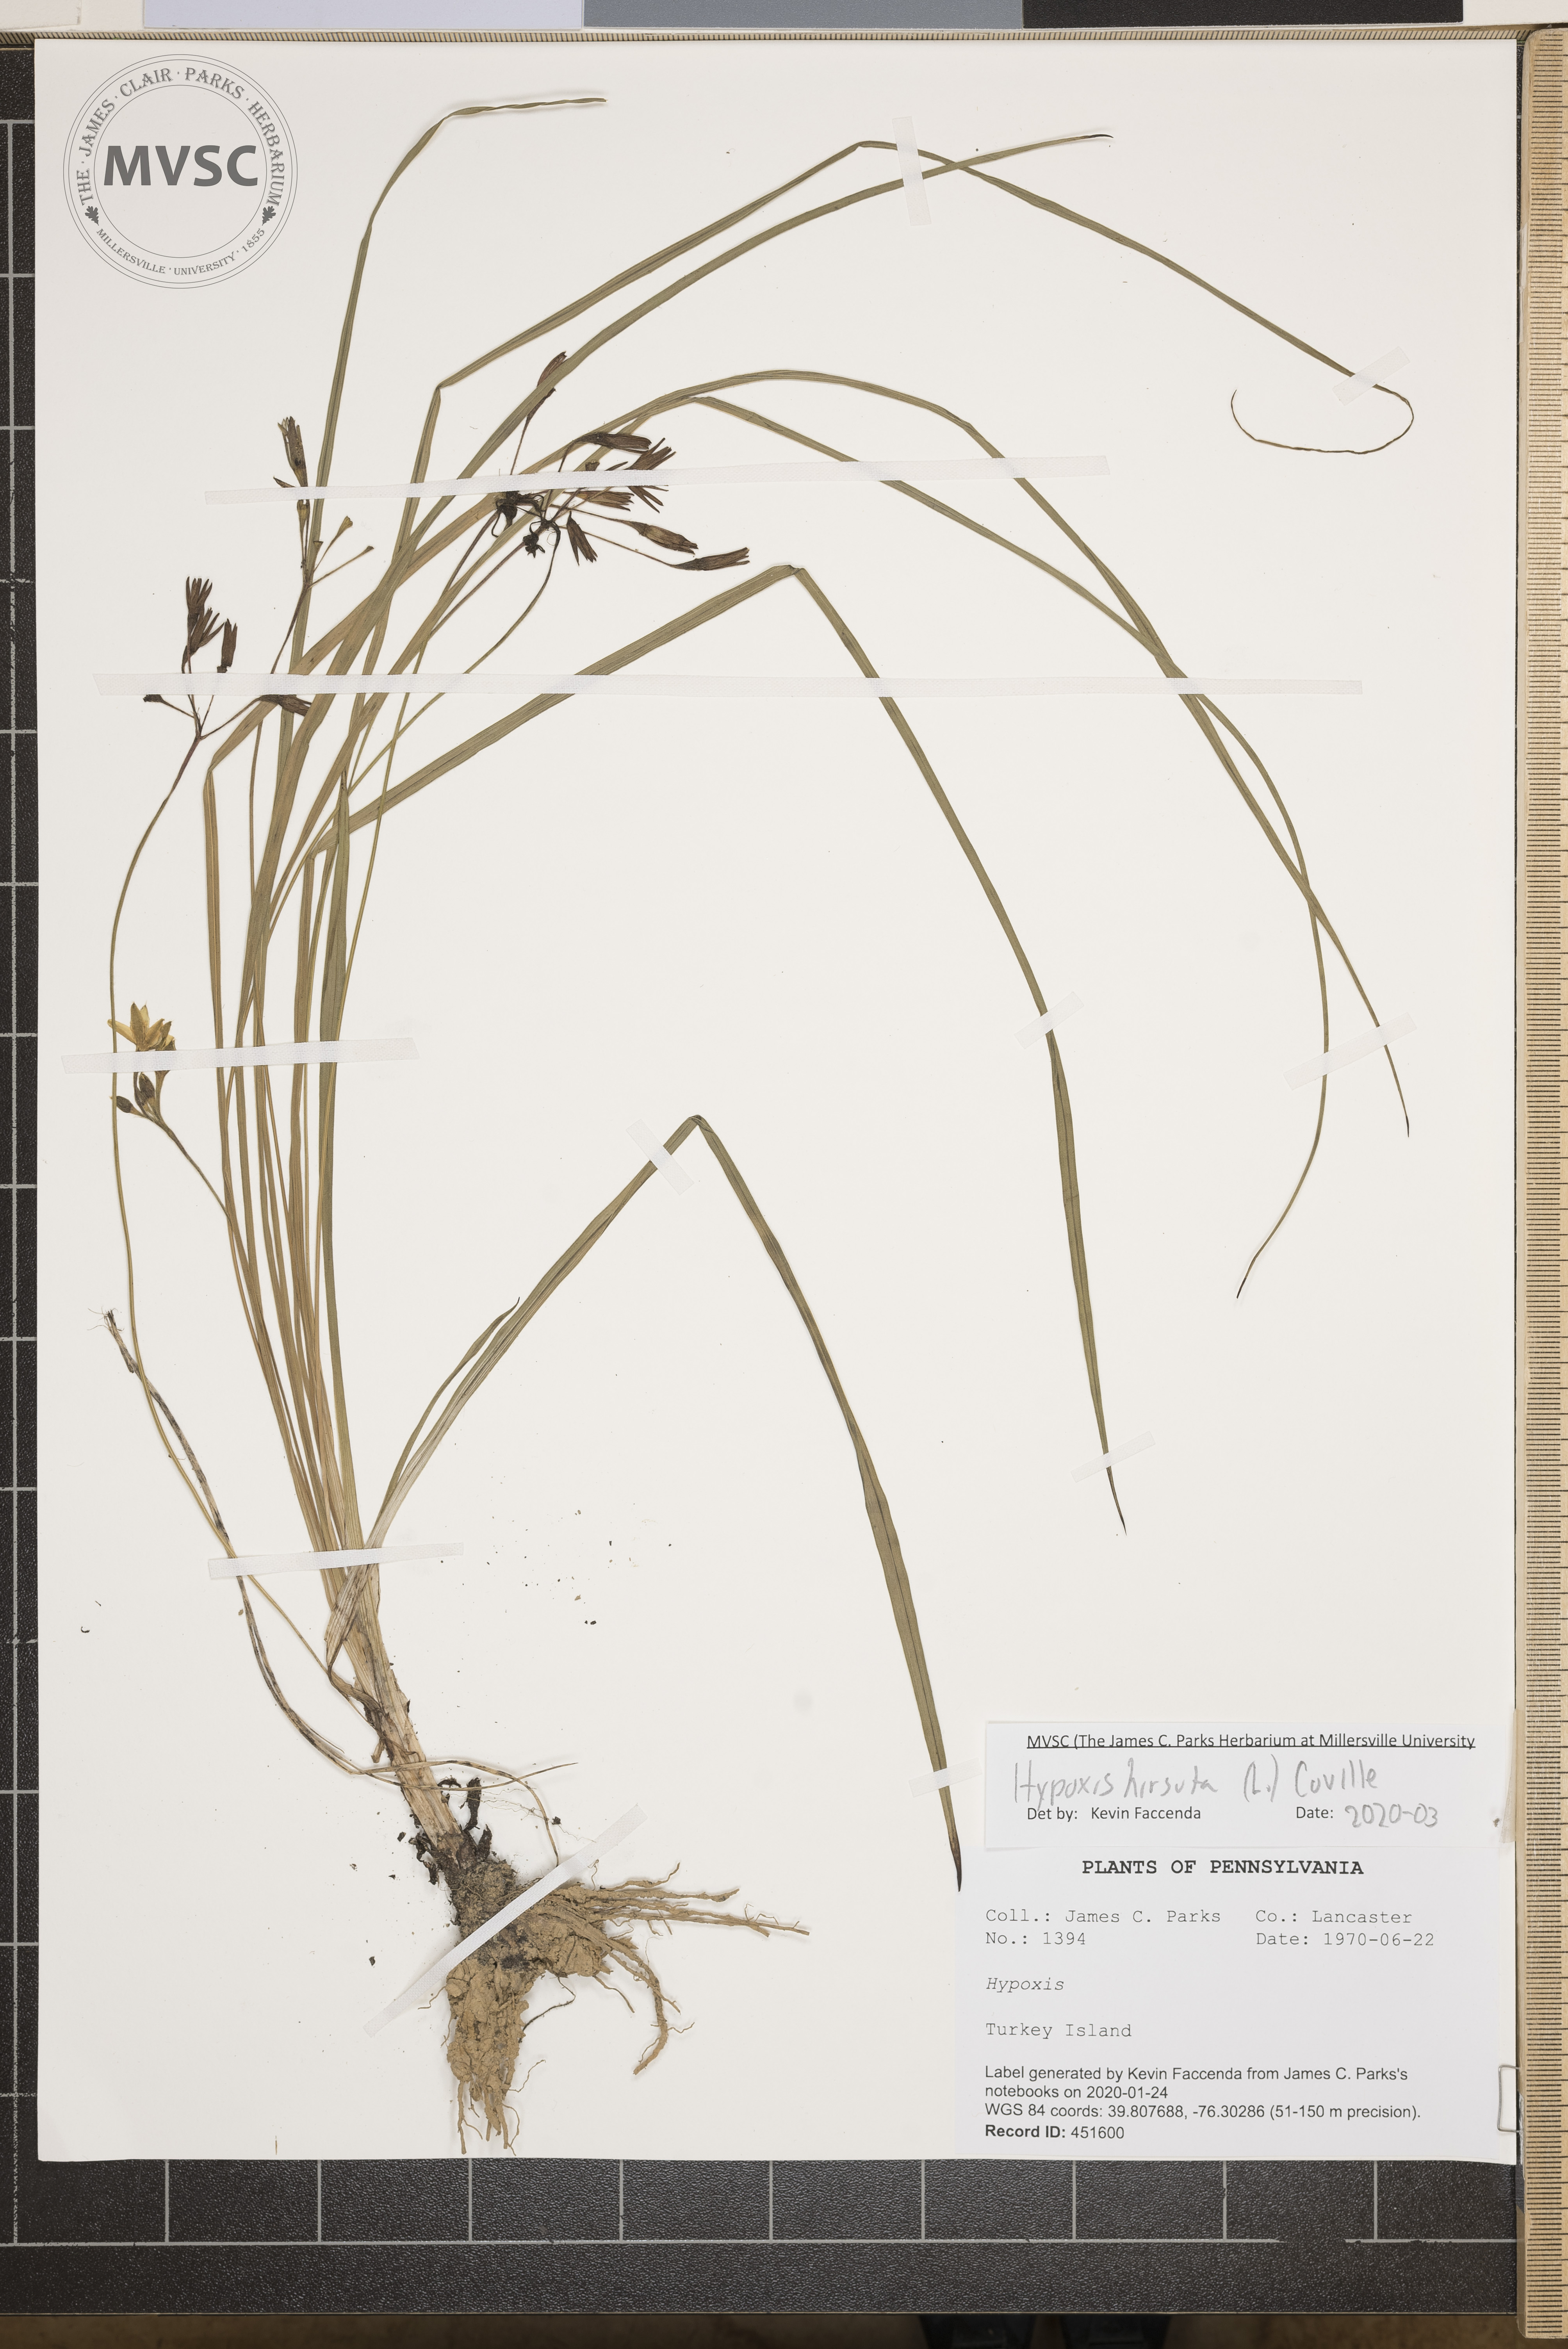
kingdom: Plantae
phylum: Tracheophyta
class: Liliopsida
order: Asparagales
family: Hypoxidaceae
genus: Hypoxis
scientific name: Hypoxis hirsuta
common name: Common goldstar
